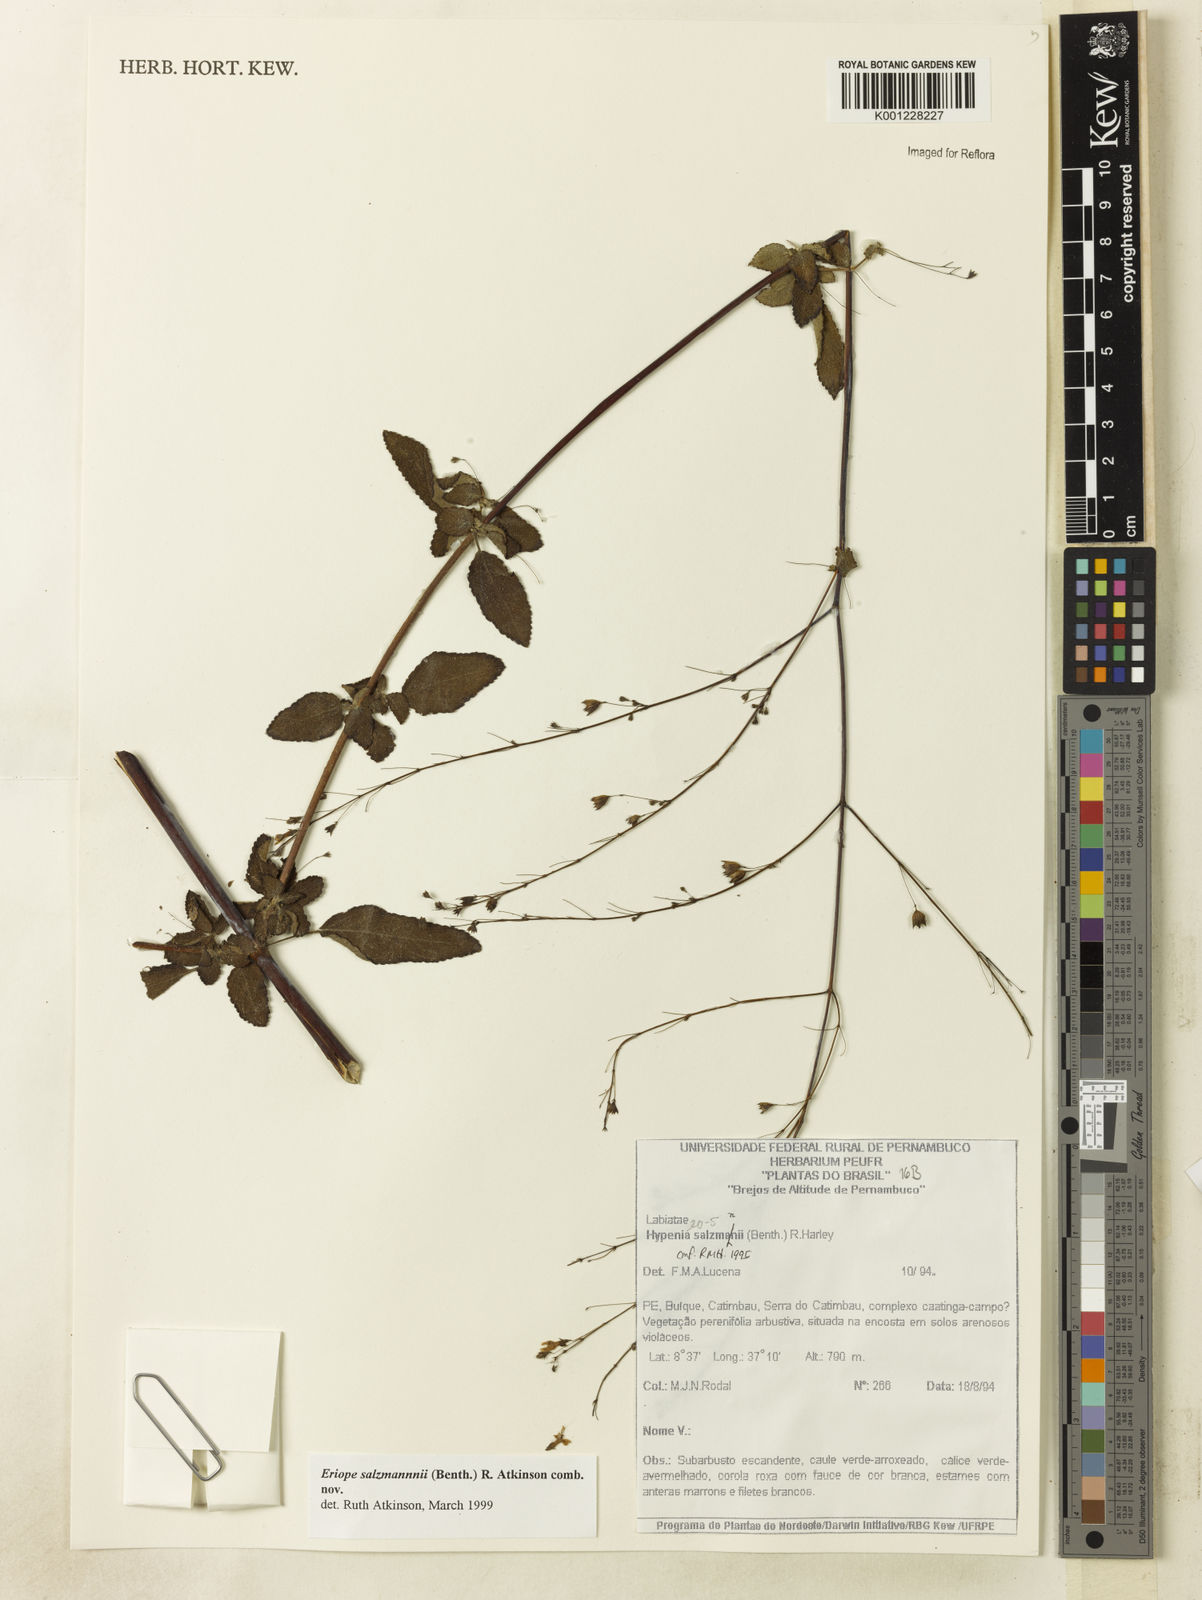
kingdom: Plantae
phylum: Tracheophyta
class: Magnoliopsida
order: Lamiales
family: Lamiaceae
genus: Hypenia
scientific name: Hypenia salzmannii
